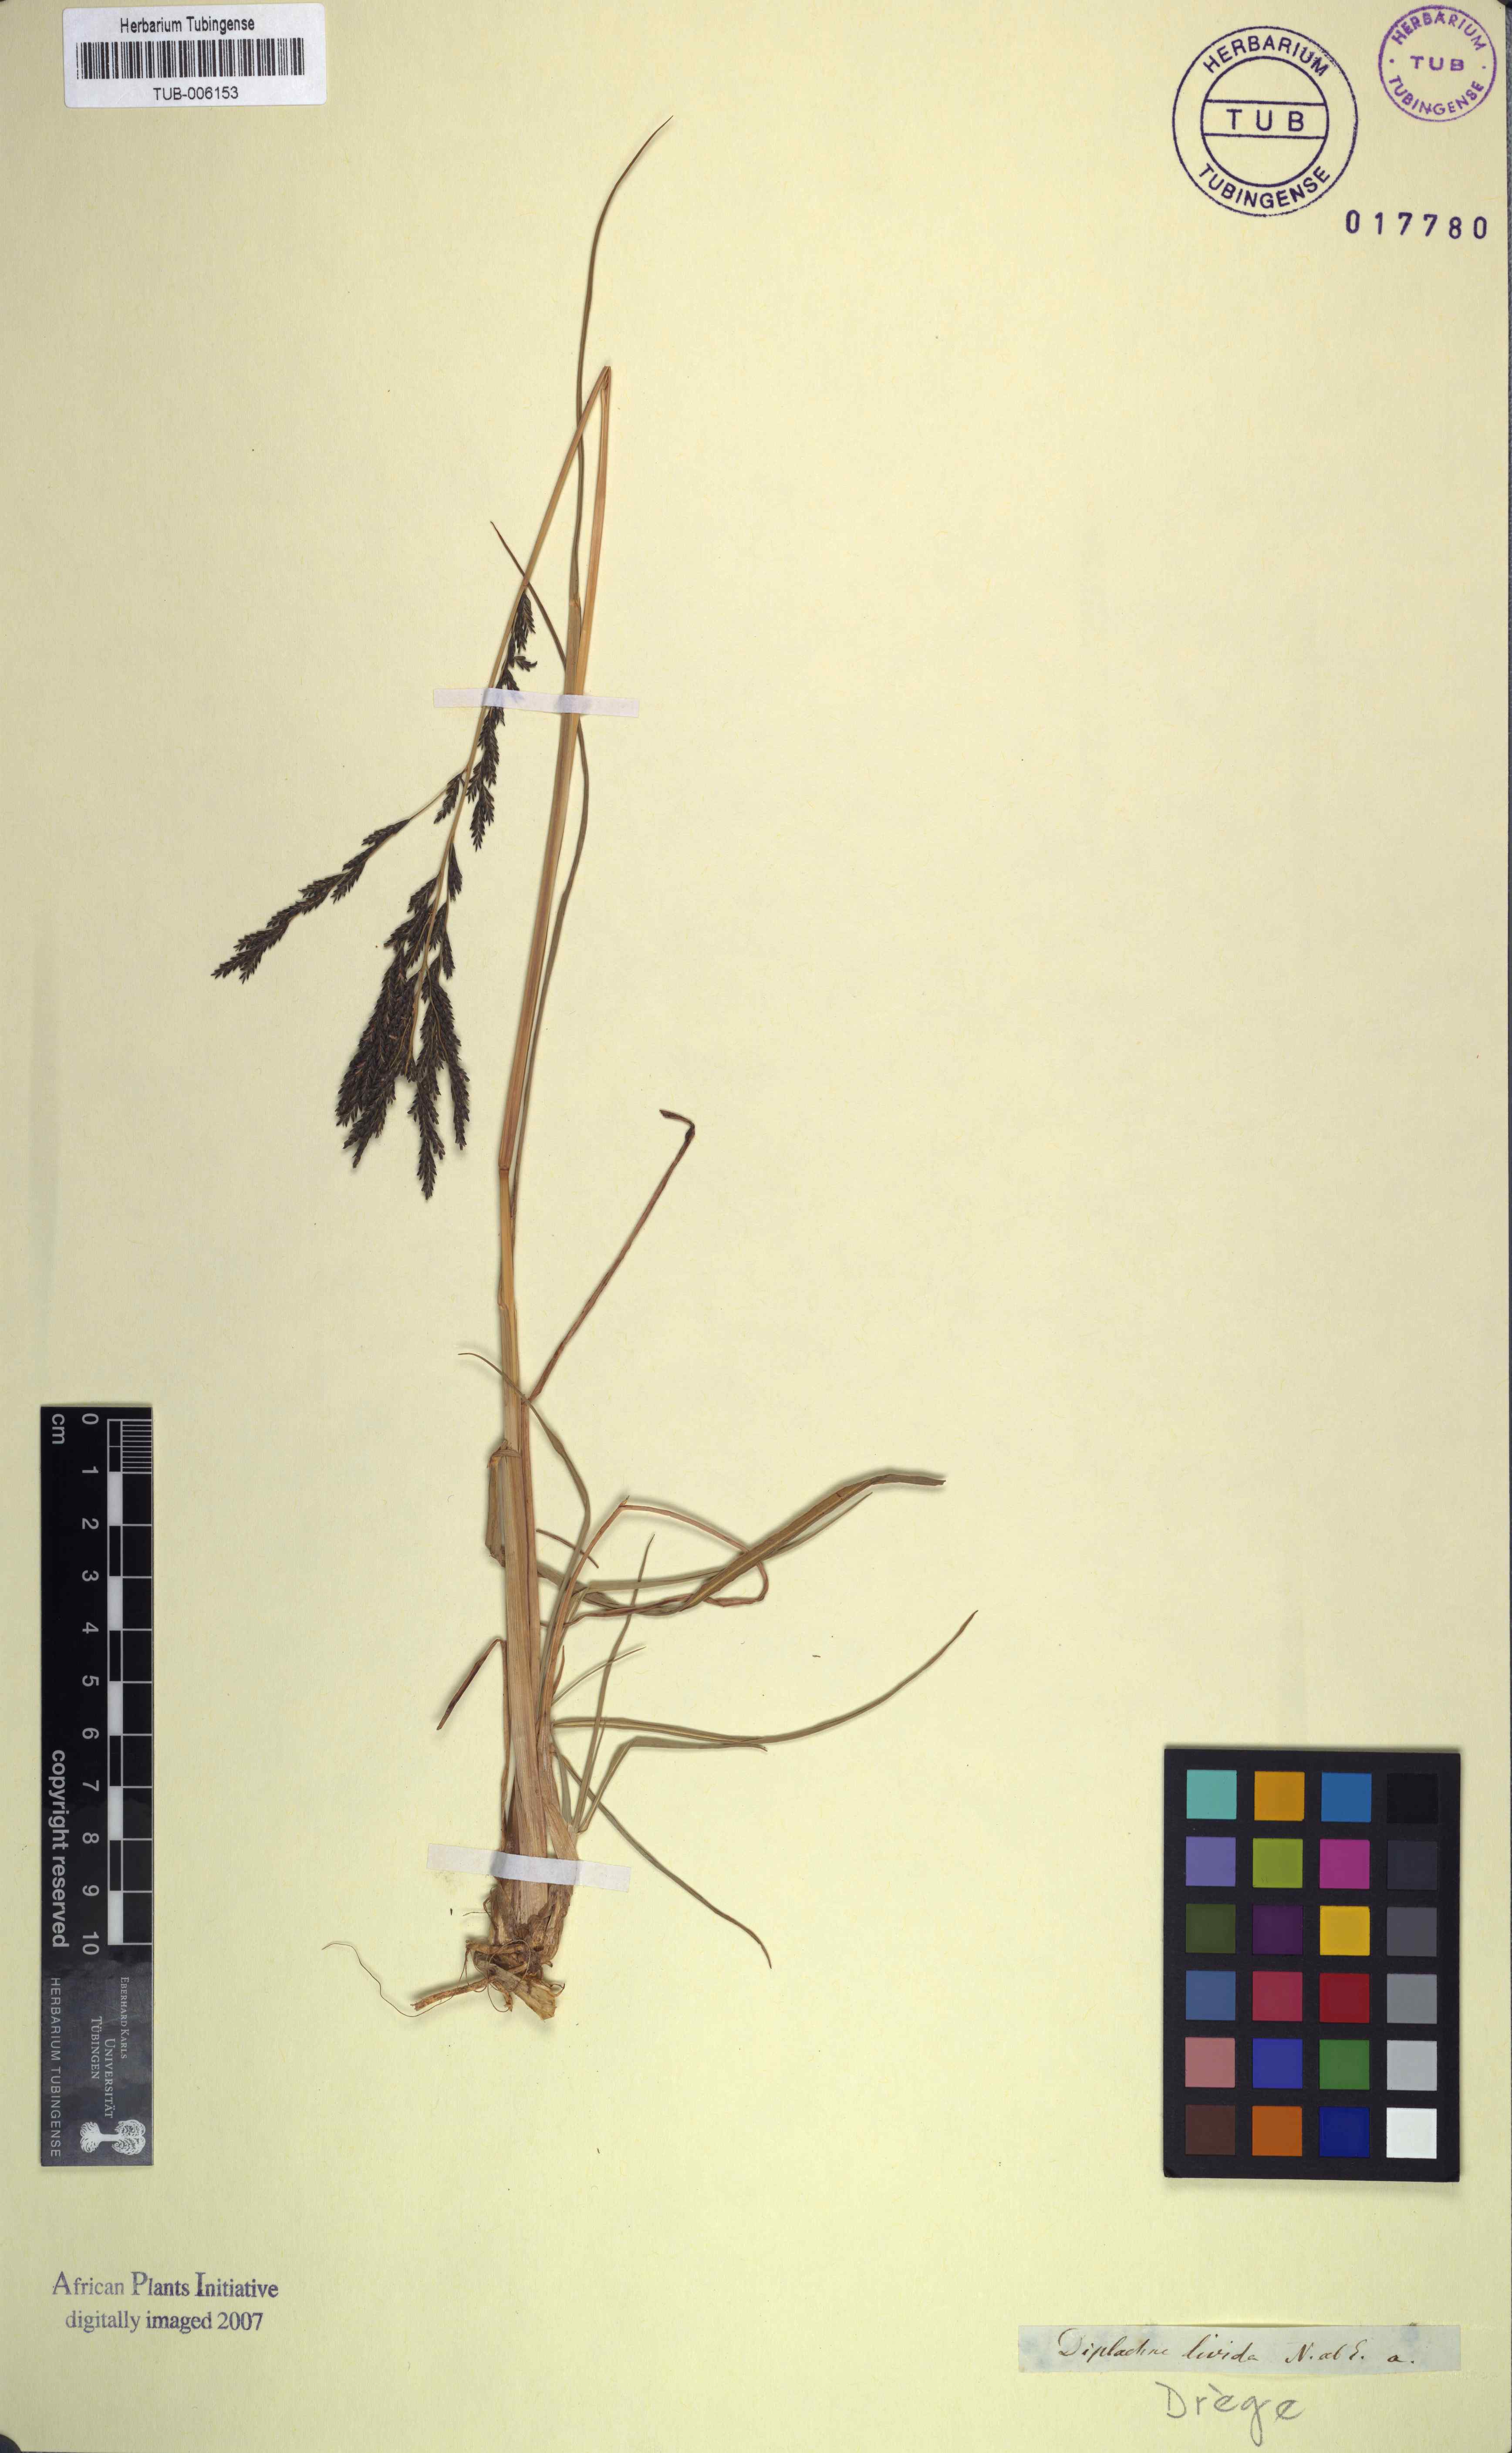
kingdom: Plantae
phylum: Tracheophyta
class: Liliopsida
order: Poales
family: Poaceae
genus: Diplachne
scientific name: Diplachne fusca
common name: Brown beetle grass
